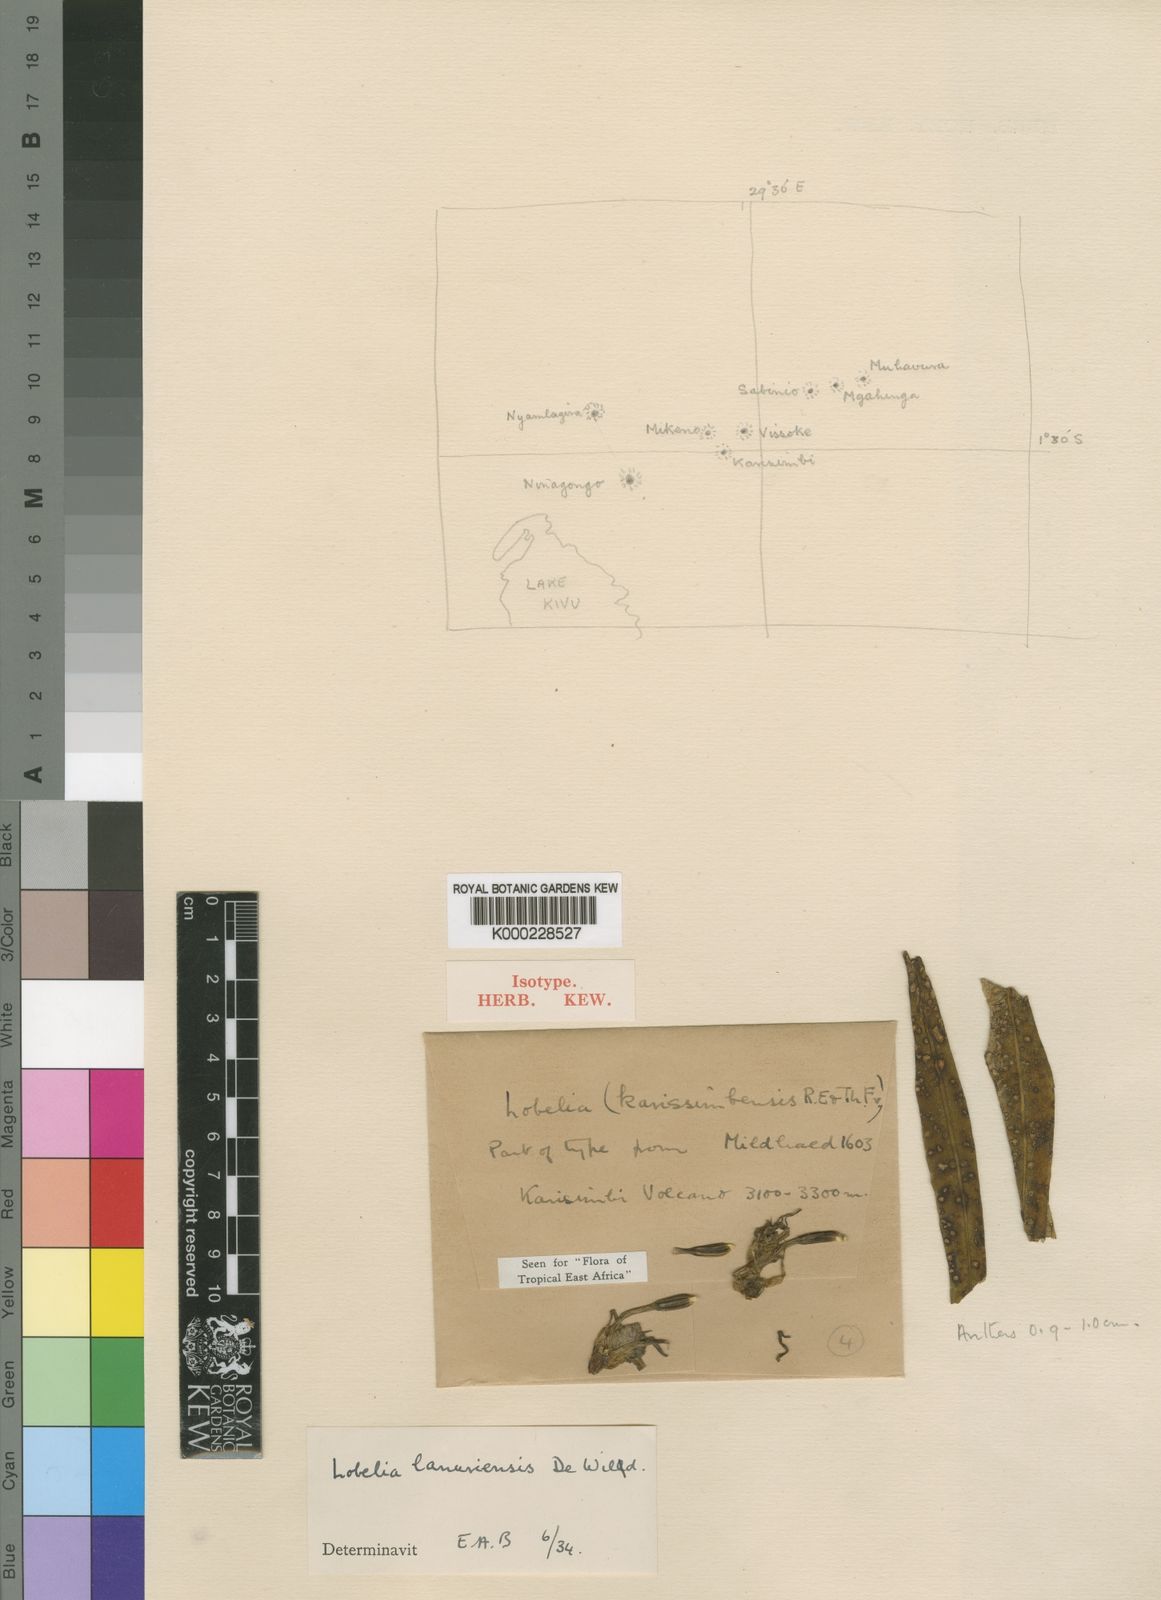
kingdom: Plantae
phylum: Tracheophyta
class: Magnoliopsida
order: Asterales
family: Campanulaceae
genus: Lobelia
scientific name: Lobelia stuhlmannii
